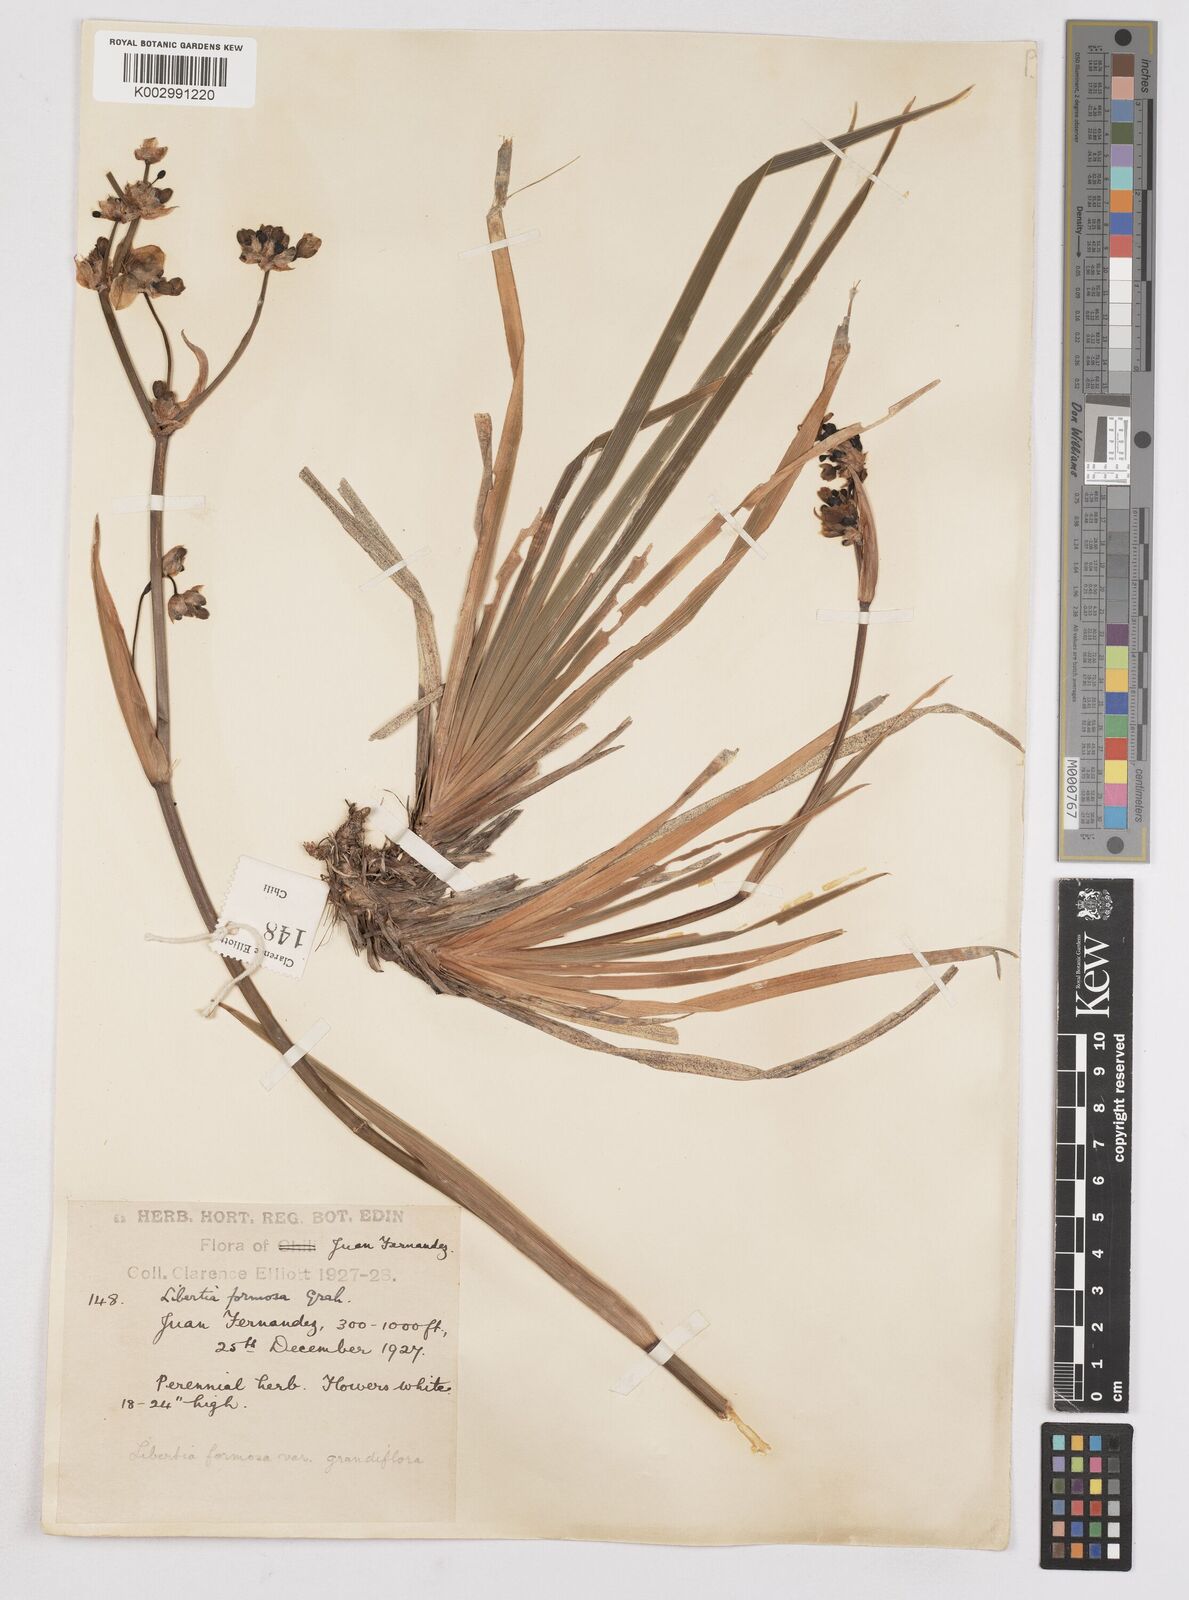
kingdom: Plantae
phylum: Tracheophyta
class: Liliopsida
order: Asparagales
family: Iridaceae
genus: Libertia
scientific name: Libertia chilensis
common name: Satin flower
